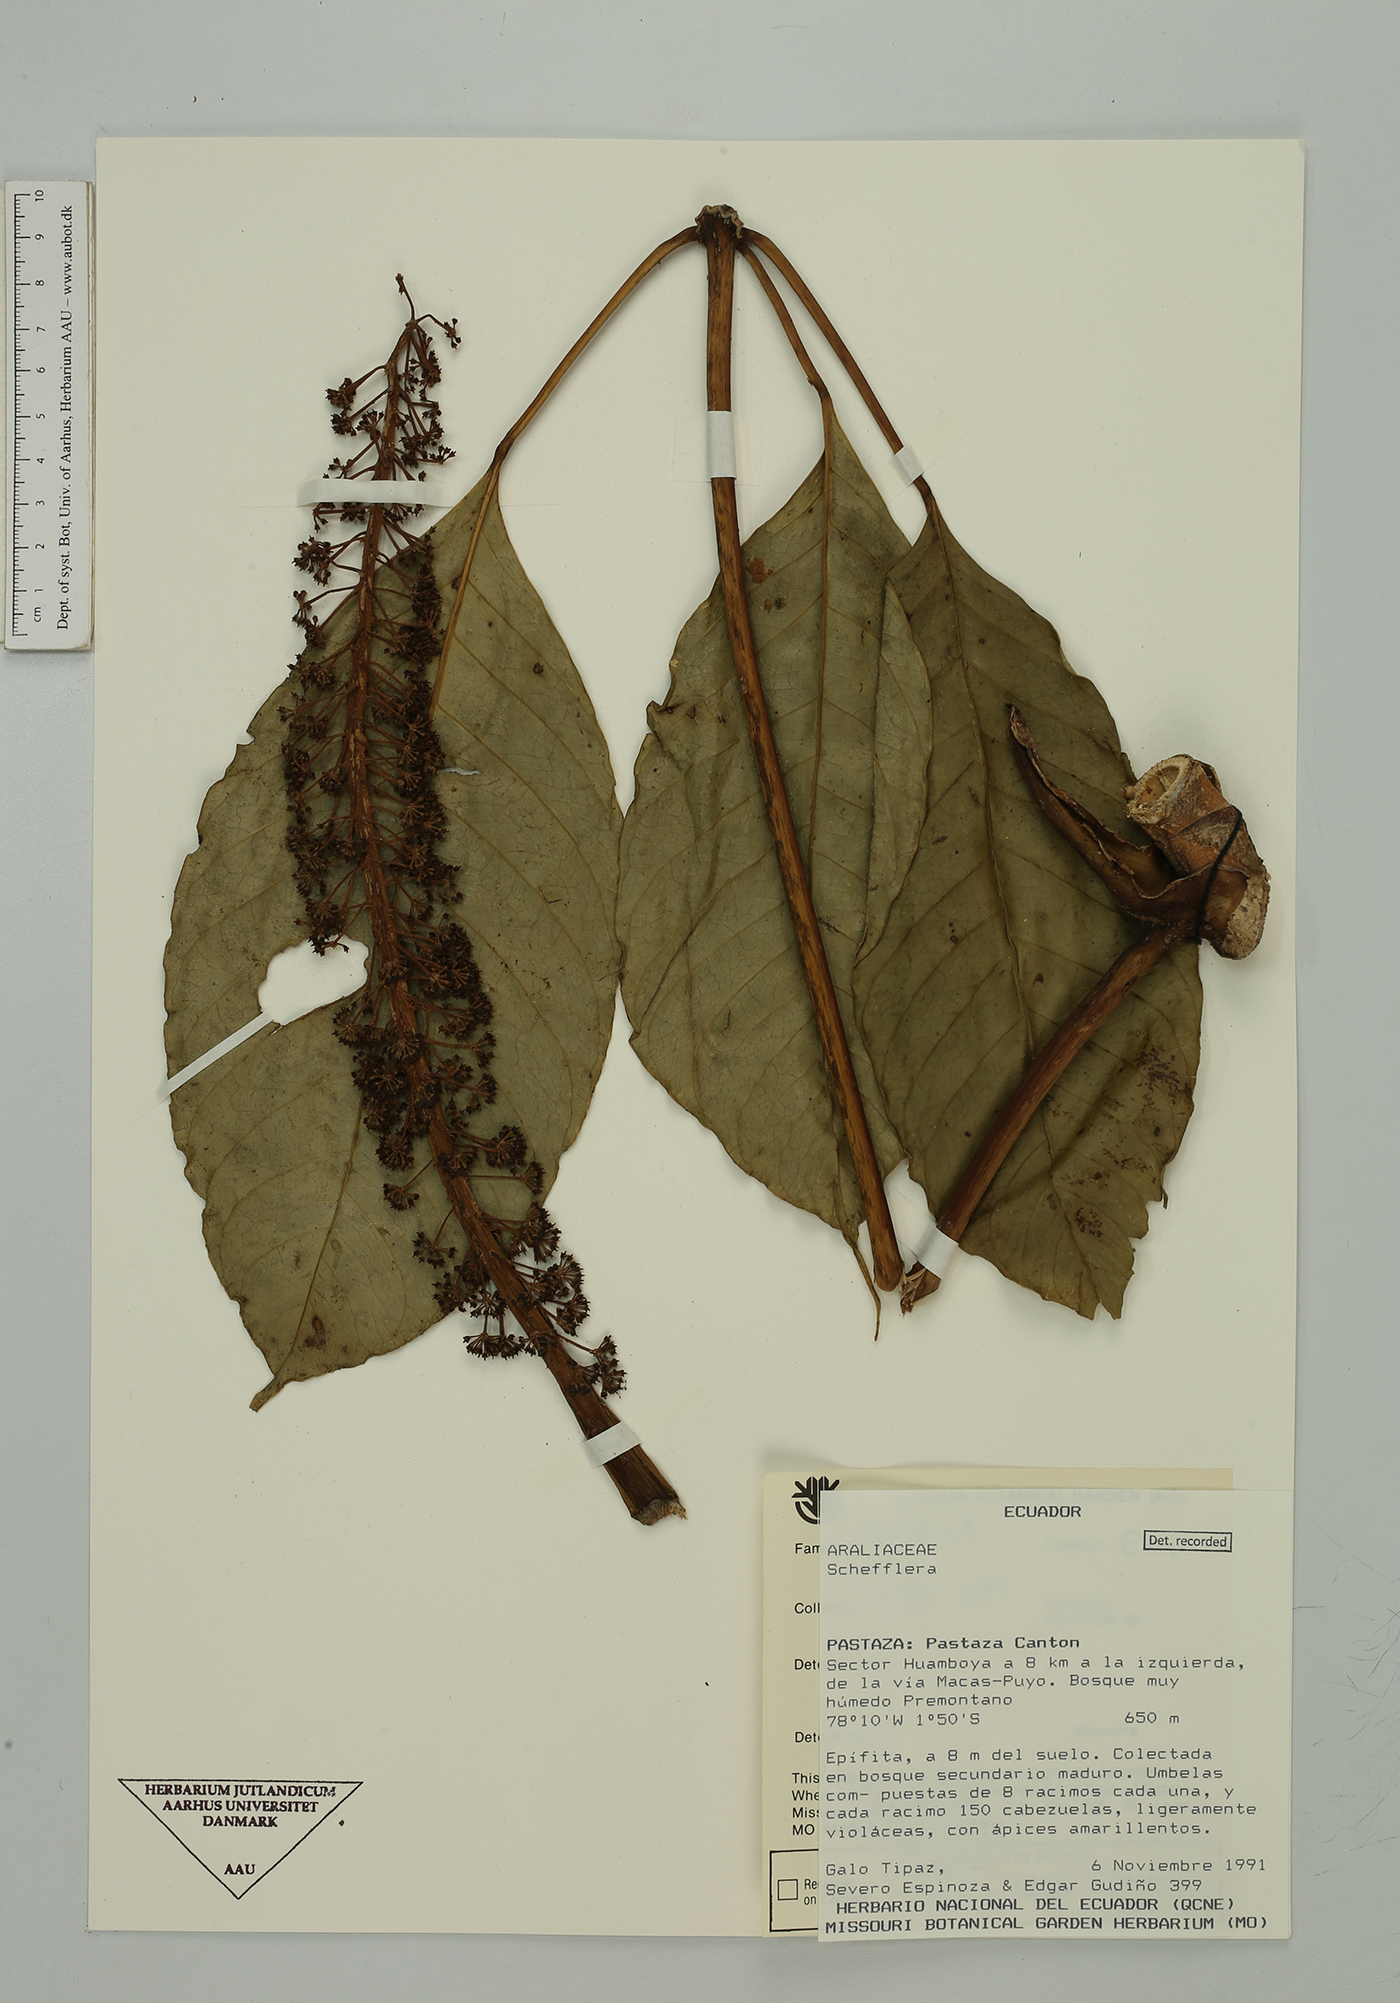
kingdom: Plantae
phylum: Tracheophyta
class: Magnoliopsida
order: Apiales
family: Araliaceae
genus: Sciodaphyllum
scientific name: Sciodaphyllum
